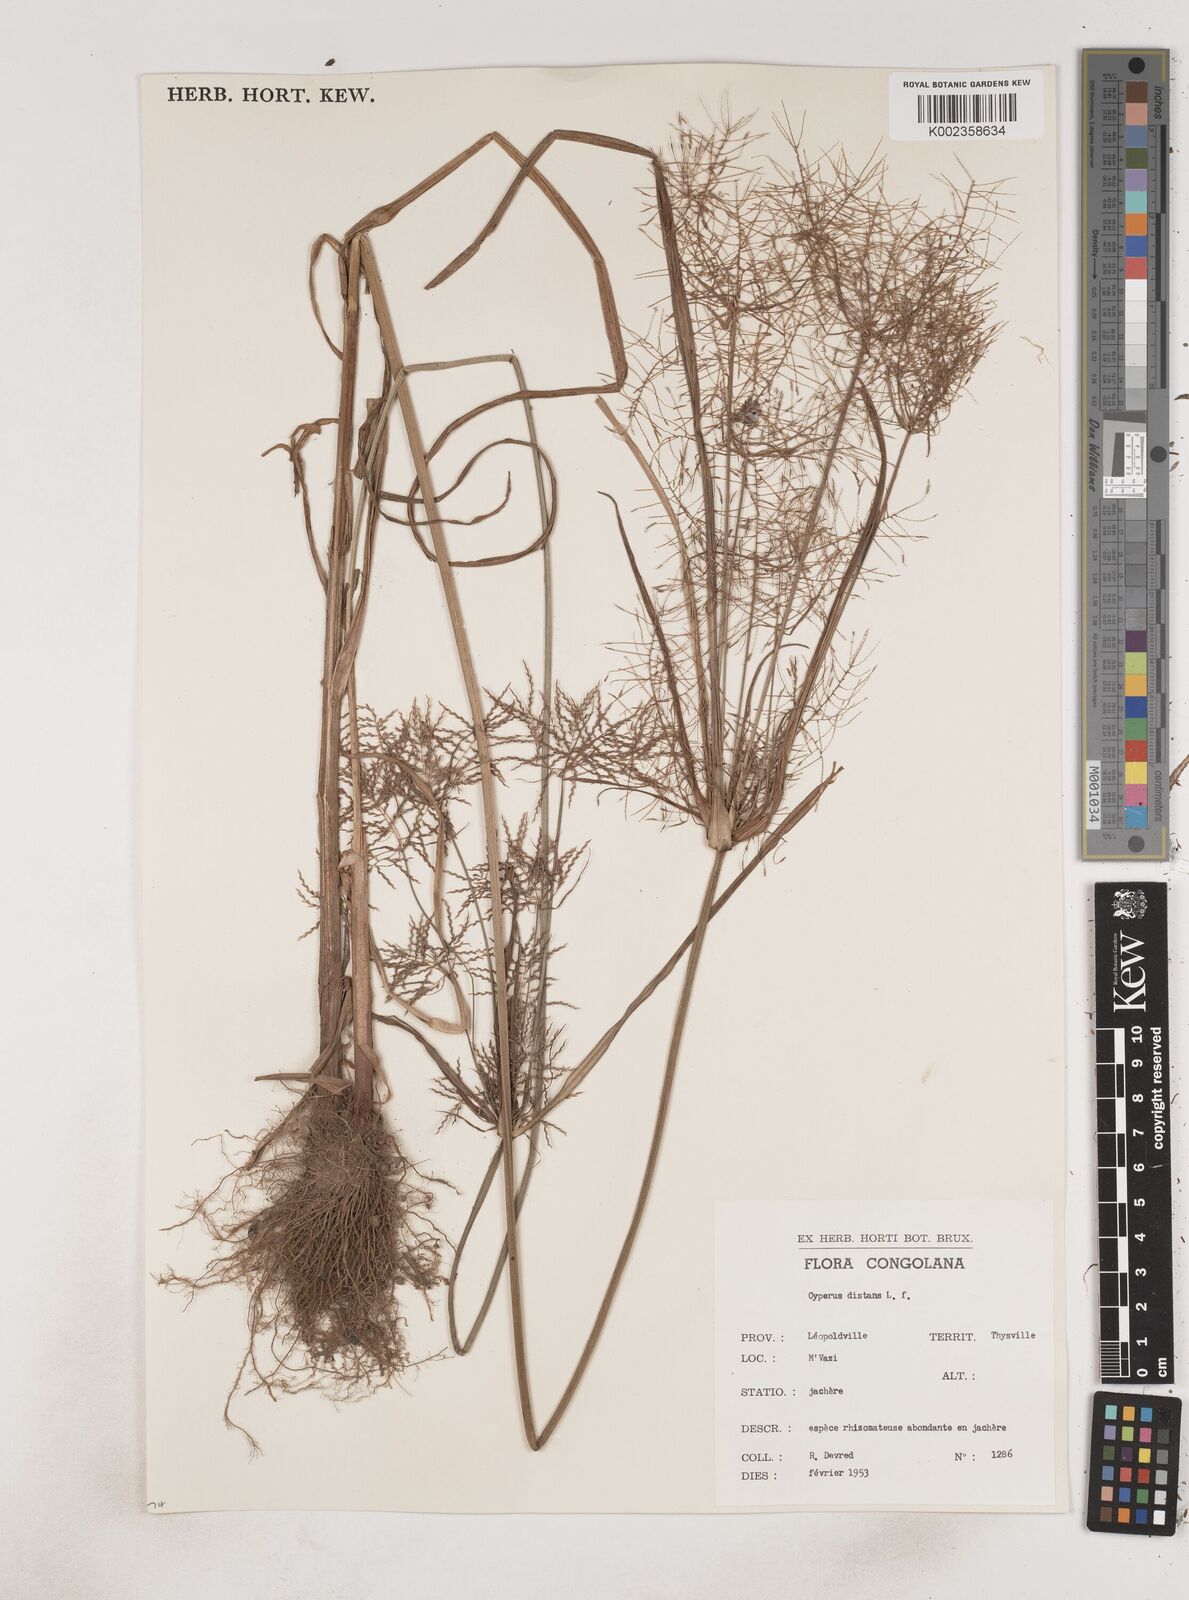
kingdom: Plantae
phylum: Tracheophyta
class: Liliopsida
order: Poales
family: Cyperaceae
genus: Cyperus
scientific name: Cyperus distans
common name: Slender cyperus
